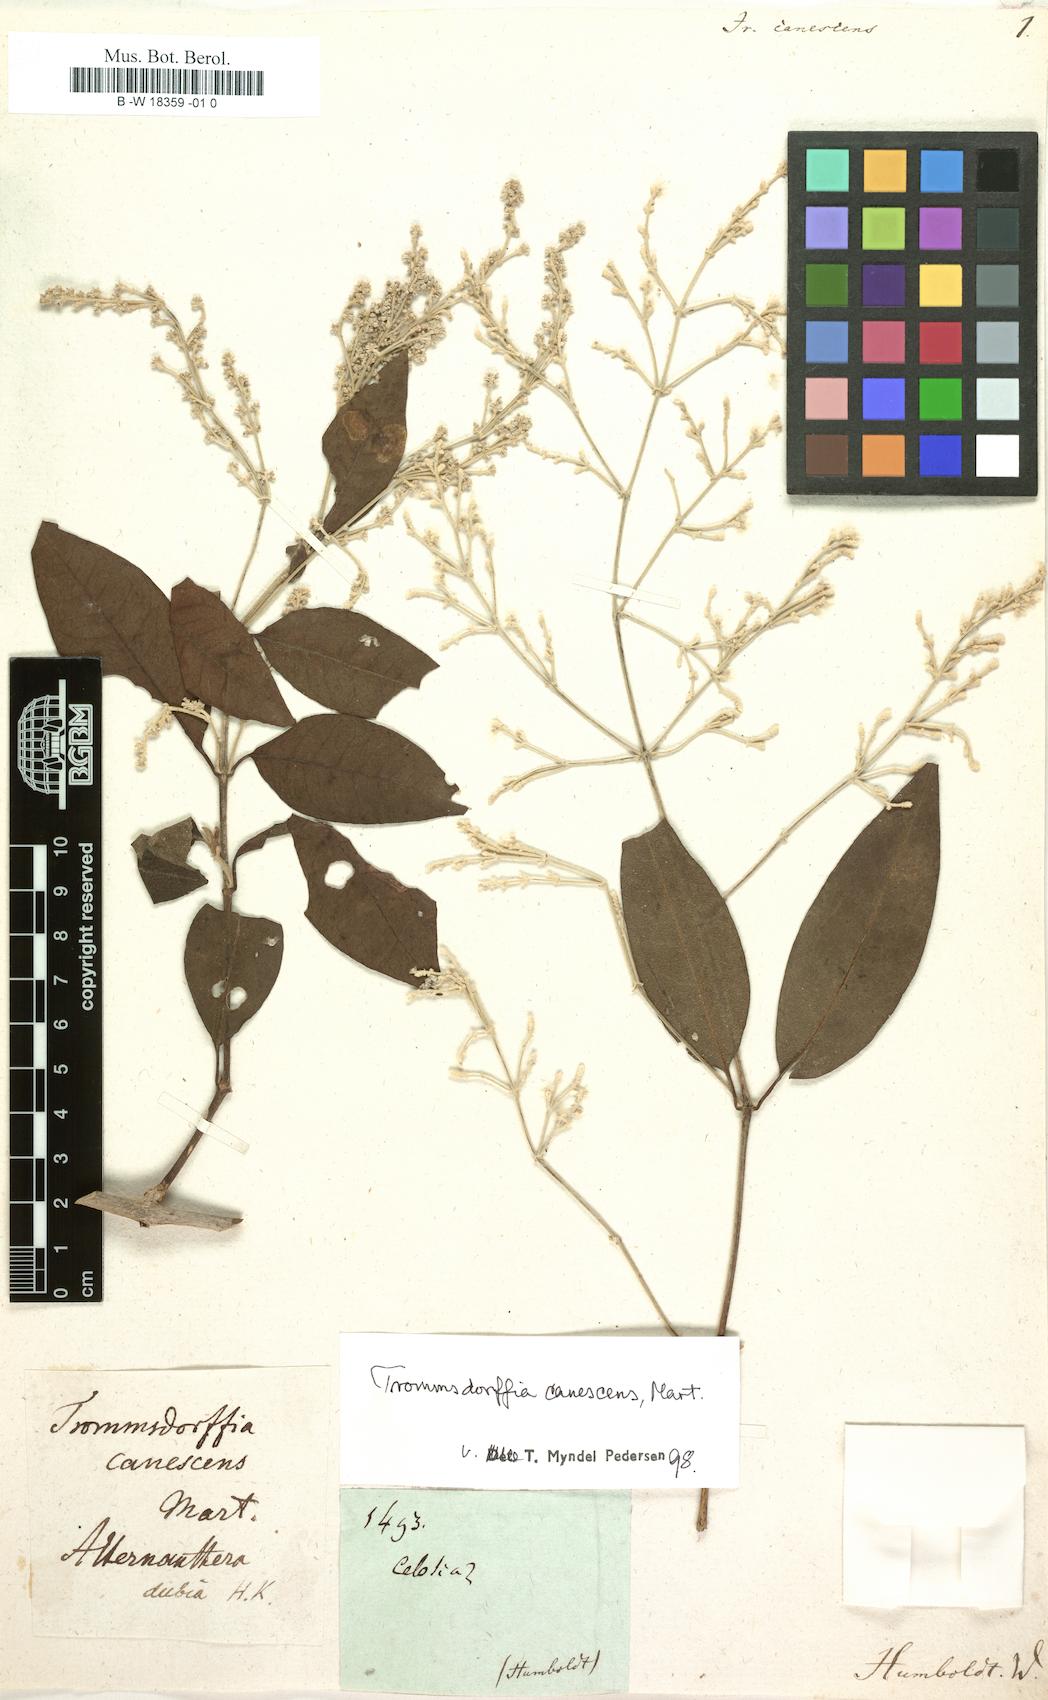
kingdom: Plantae
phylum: Tracheophyta
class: Magnoliopsida
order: Caryophyllales
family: Amaranthaceae
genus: Iresine
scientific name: Iresine diffusa
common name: Juba's-bush
